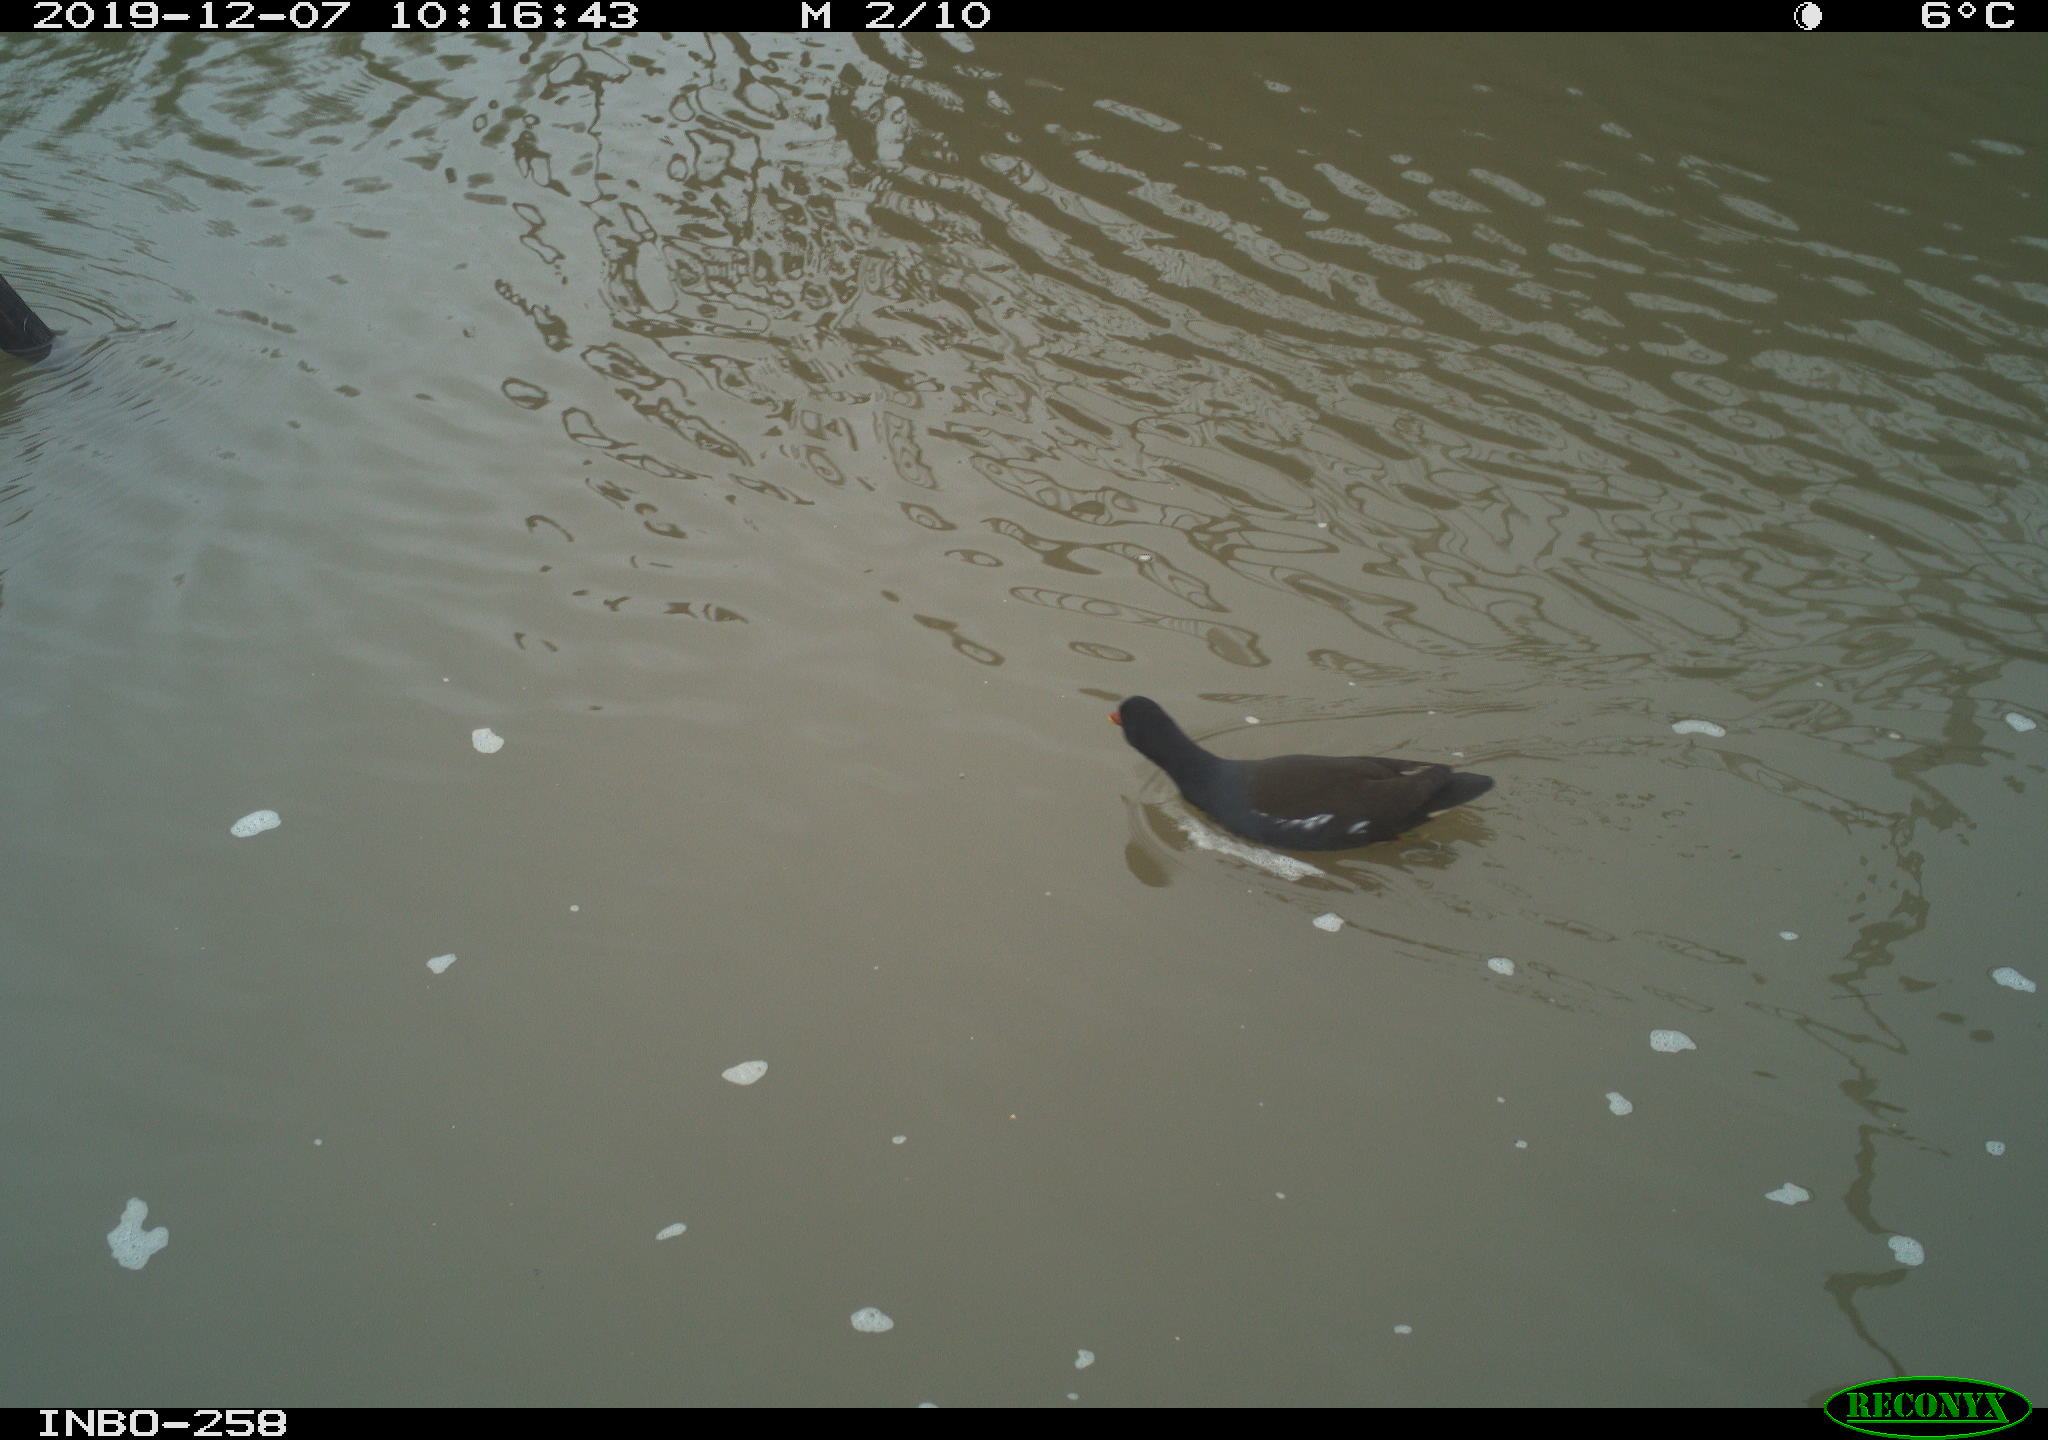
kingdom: Animalia
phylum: Chordata
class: Aves
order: Gruiformes
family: Rallidae
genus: Gallinula
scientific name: Gallinula chloropus
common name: Common moorhen
